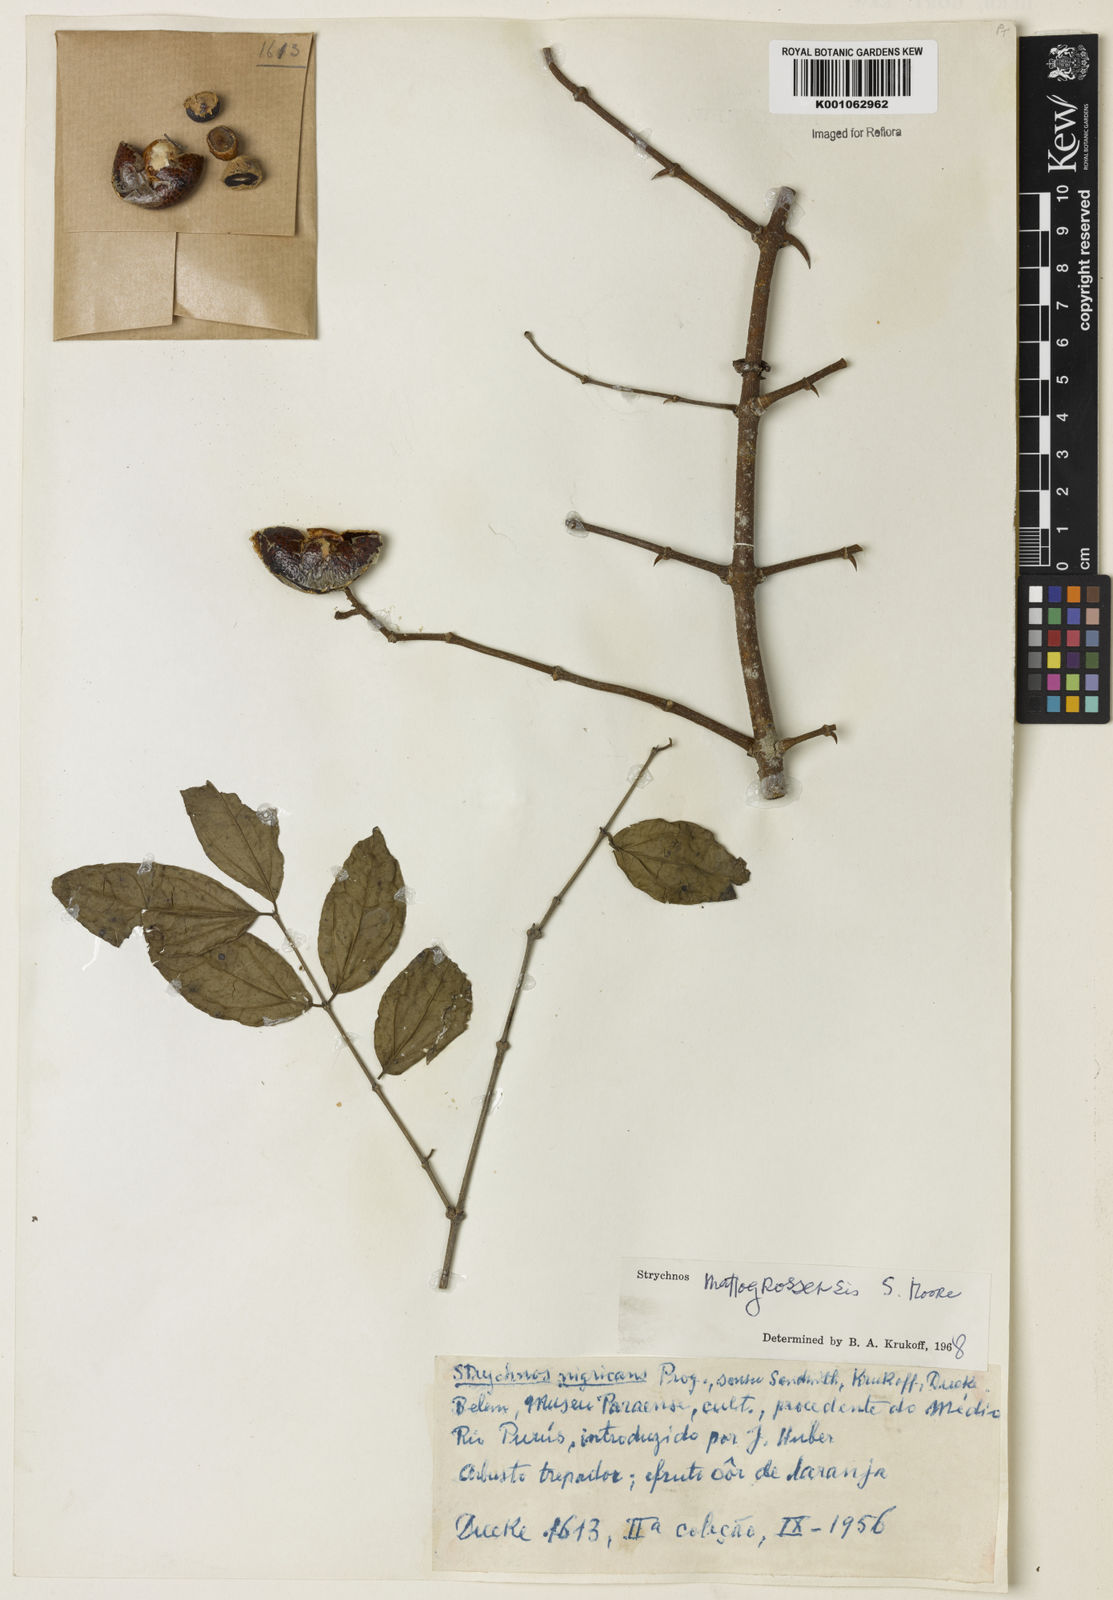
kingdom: Plantae
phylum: Tracheophyta
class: Magnoliopsida
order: Gentianales
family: Loganiaceae
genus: Strychnos
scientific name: Strychnos mattogrossensis
